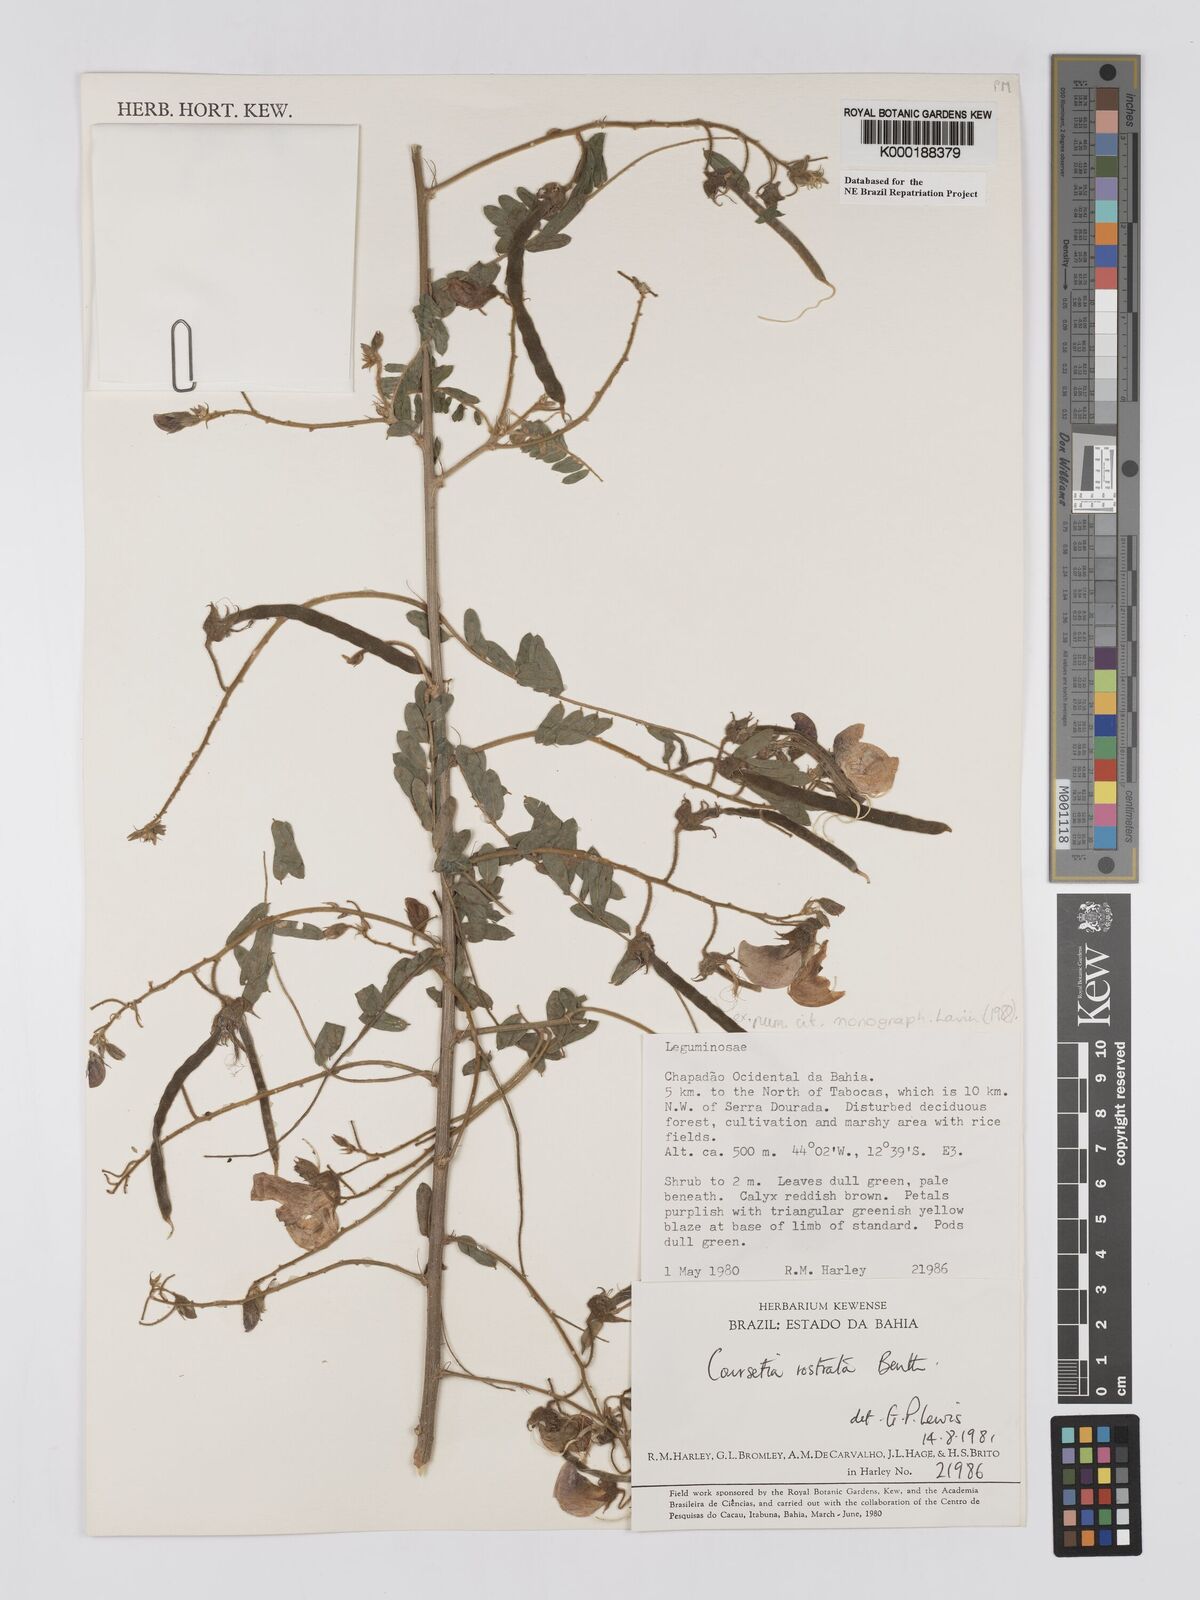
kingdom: Plantae
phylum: Tracheophyta
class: Magnoliopsida
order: Fabales
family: Fabaceae
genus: Coursetia
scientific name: Coursetia rostrata
